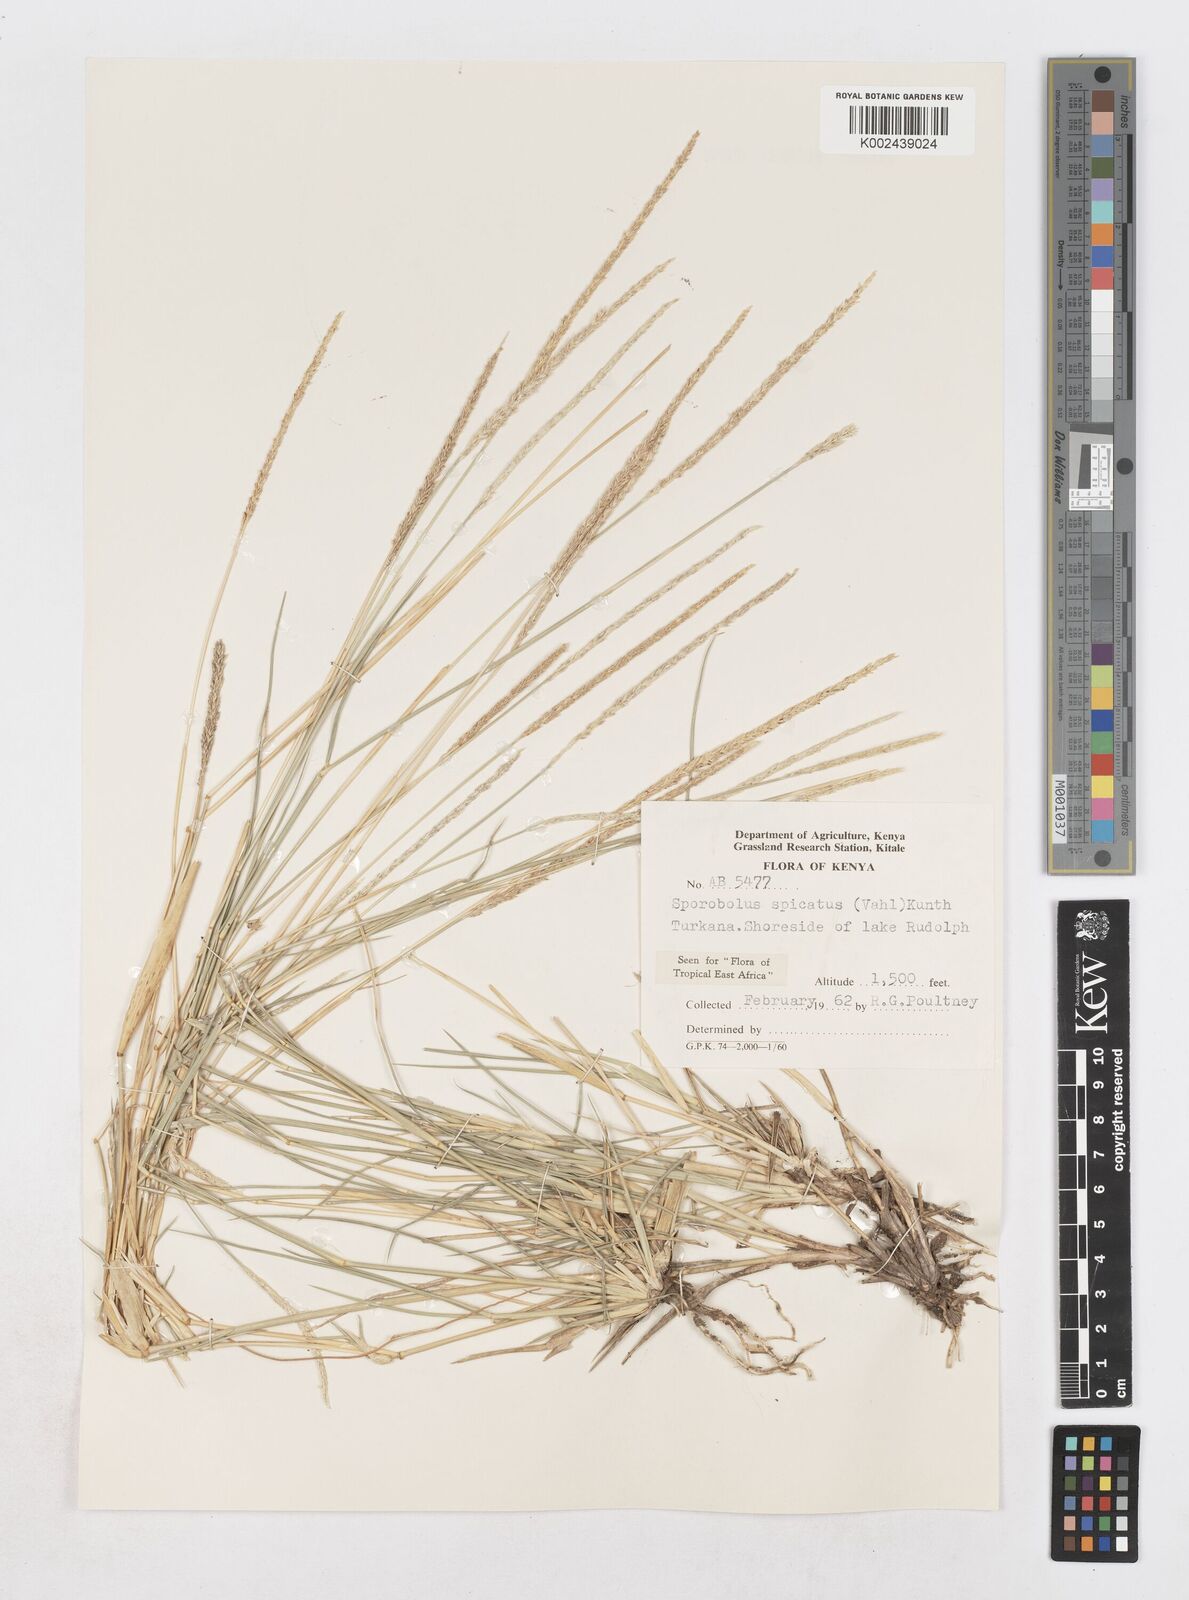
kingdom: Plantae
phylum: Tracheophyta
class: Liliopsida
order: Poales
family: Poaceae
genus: Sporobolus
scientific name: Sporobolus spicatus
